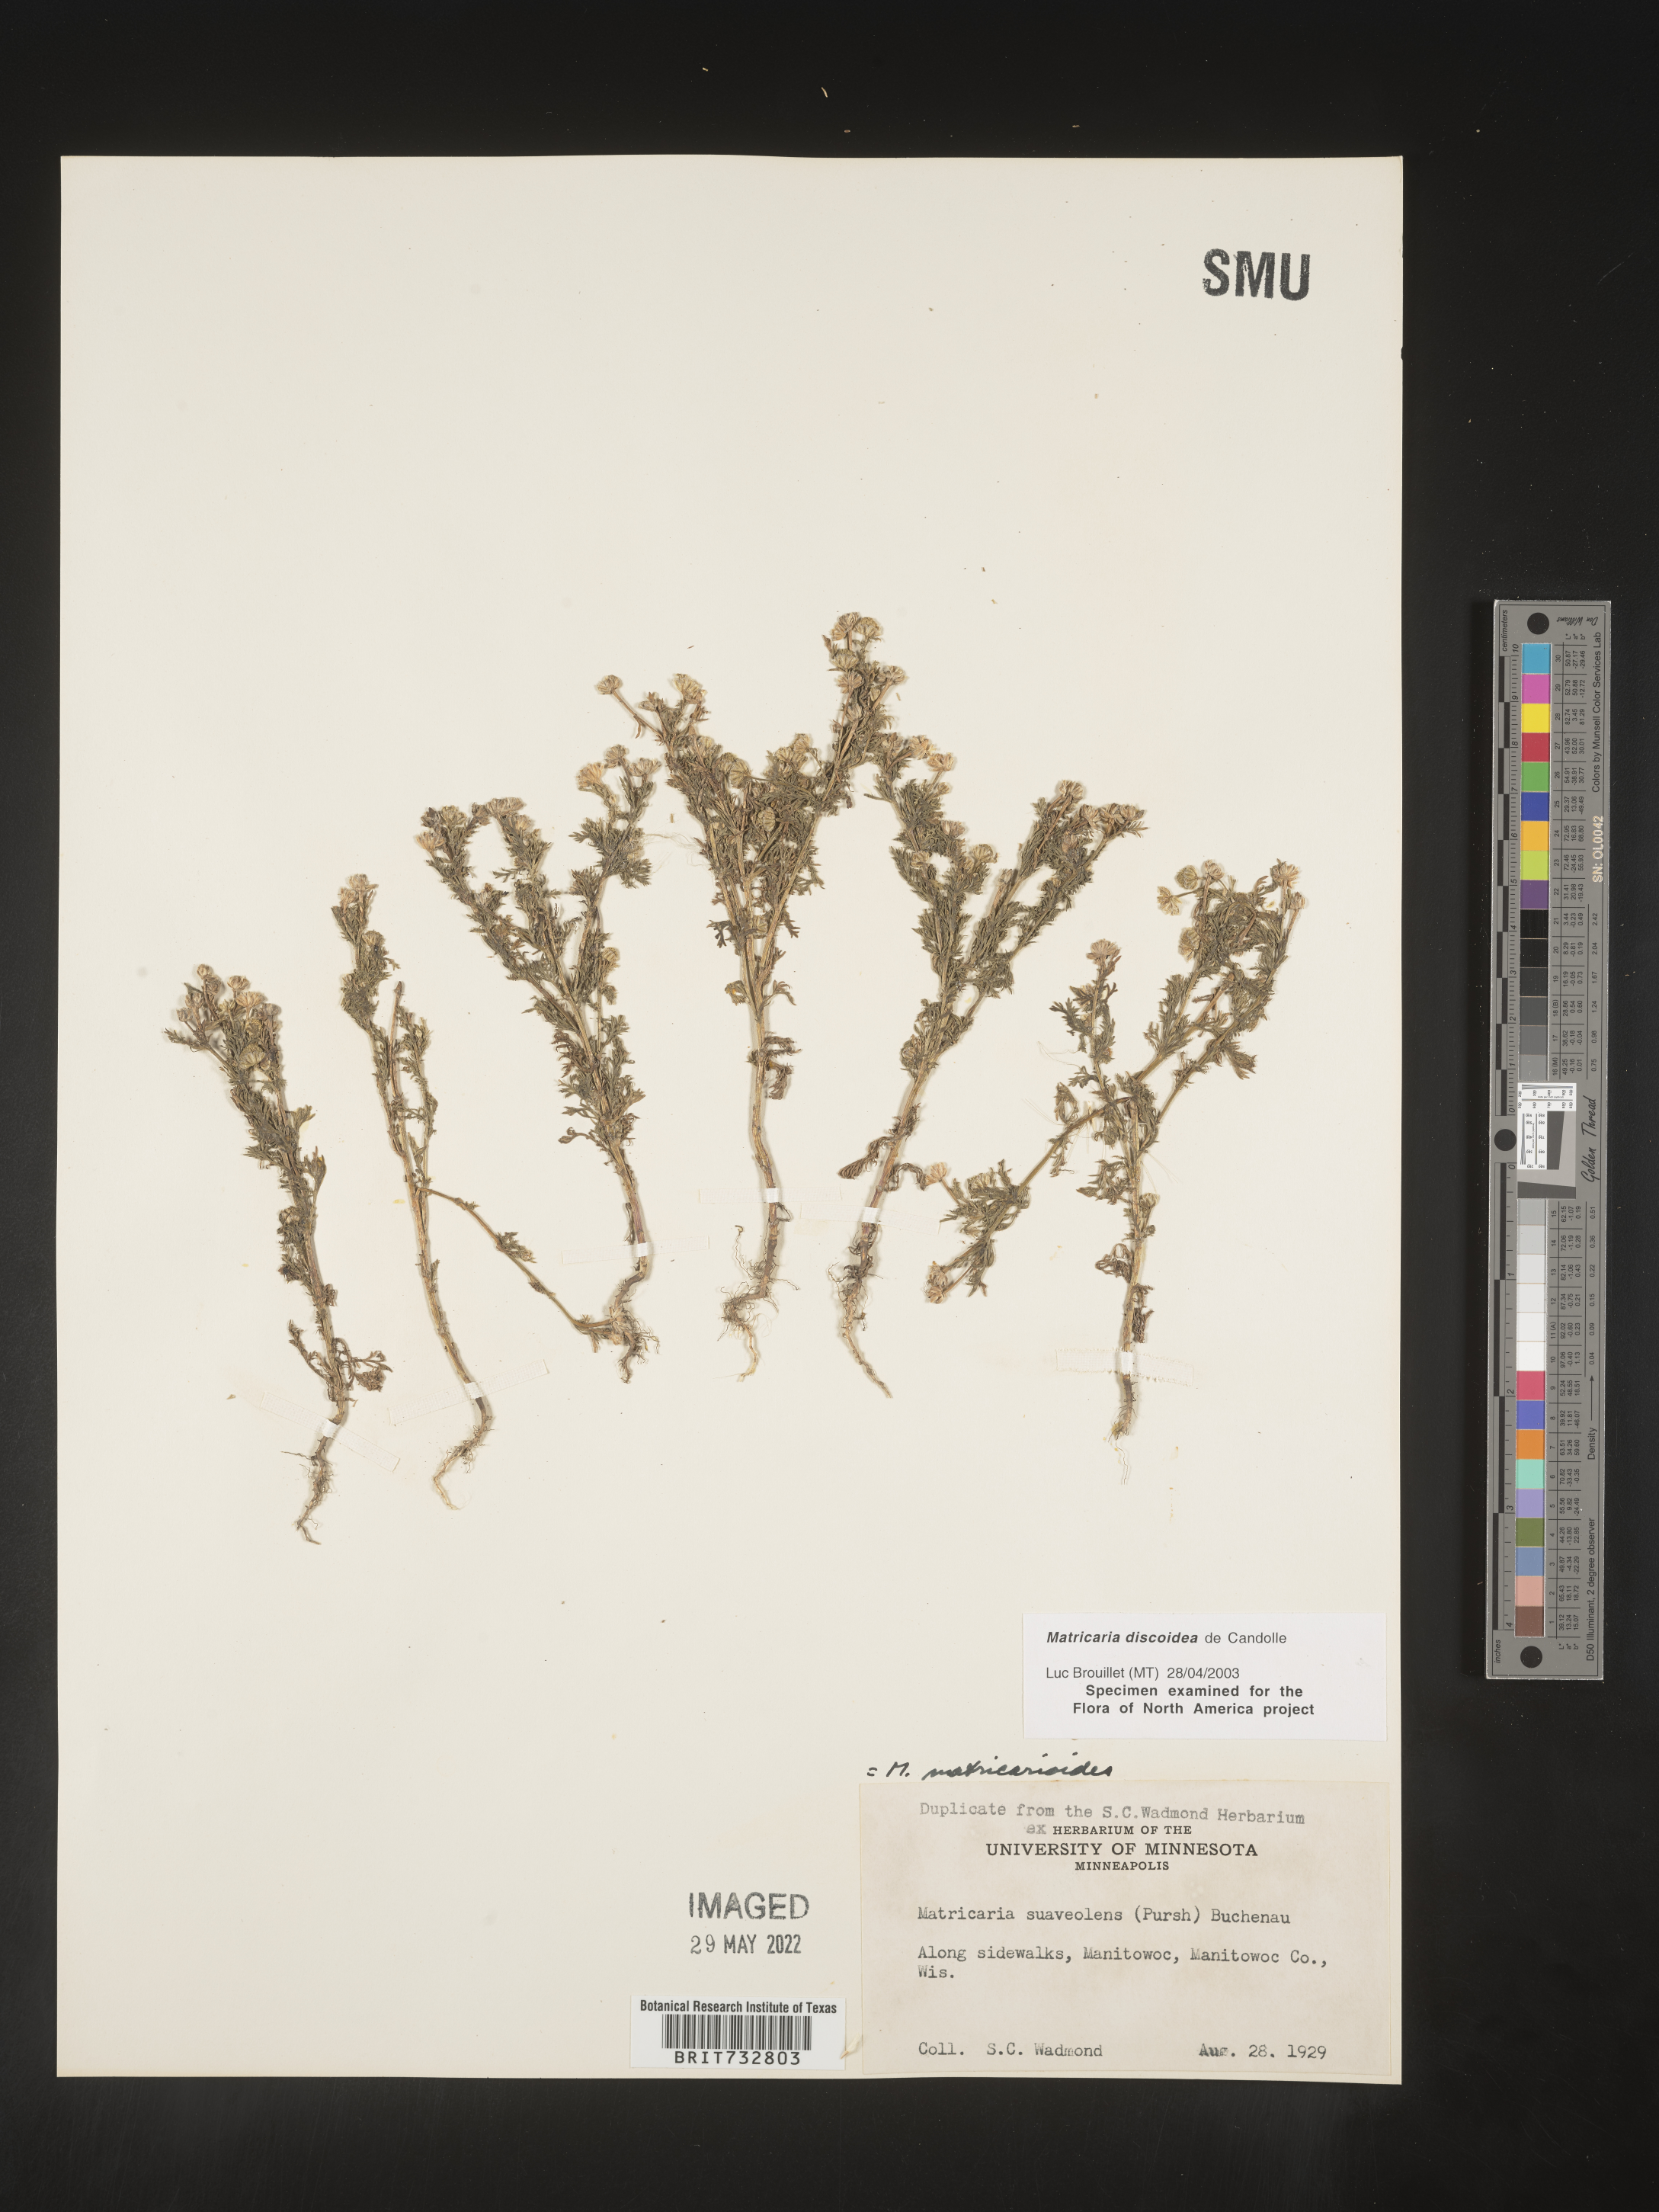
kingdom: Plantae
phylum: Tracheophyta
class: Magnoliopsida
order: Asterales
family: Asteraceae
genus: Matricaria
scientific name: Matricaria discoidea
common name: Disc mayweed
